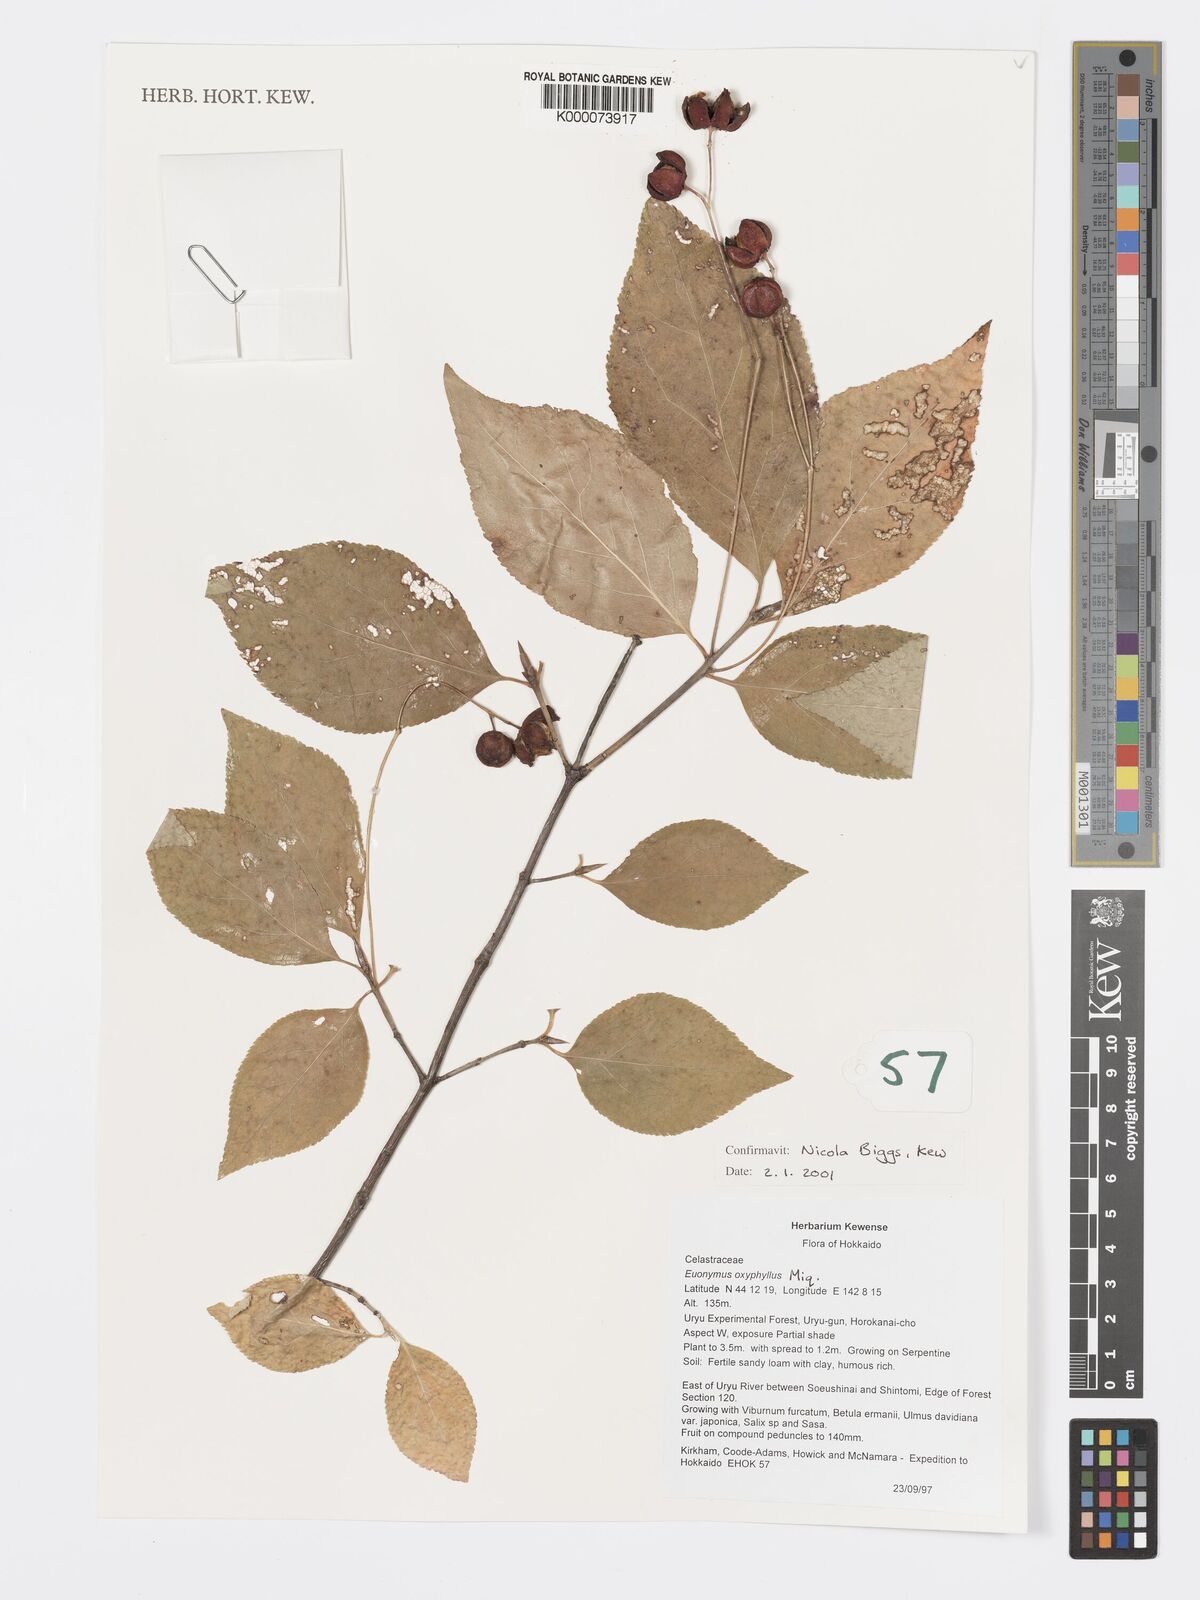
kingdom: Plantae
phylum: Tracheophyta
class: Magnoliopsida
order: Celastrales
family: Celastraceae
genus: Euonymus
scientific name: Euonymus oxyphyllus
